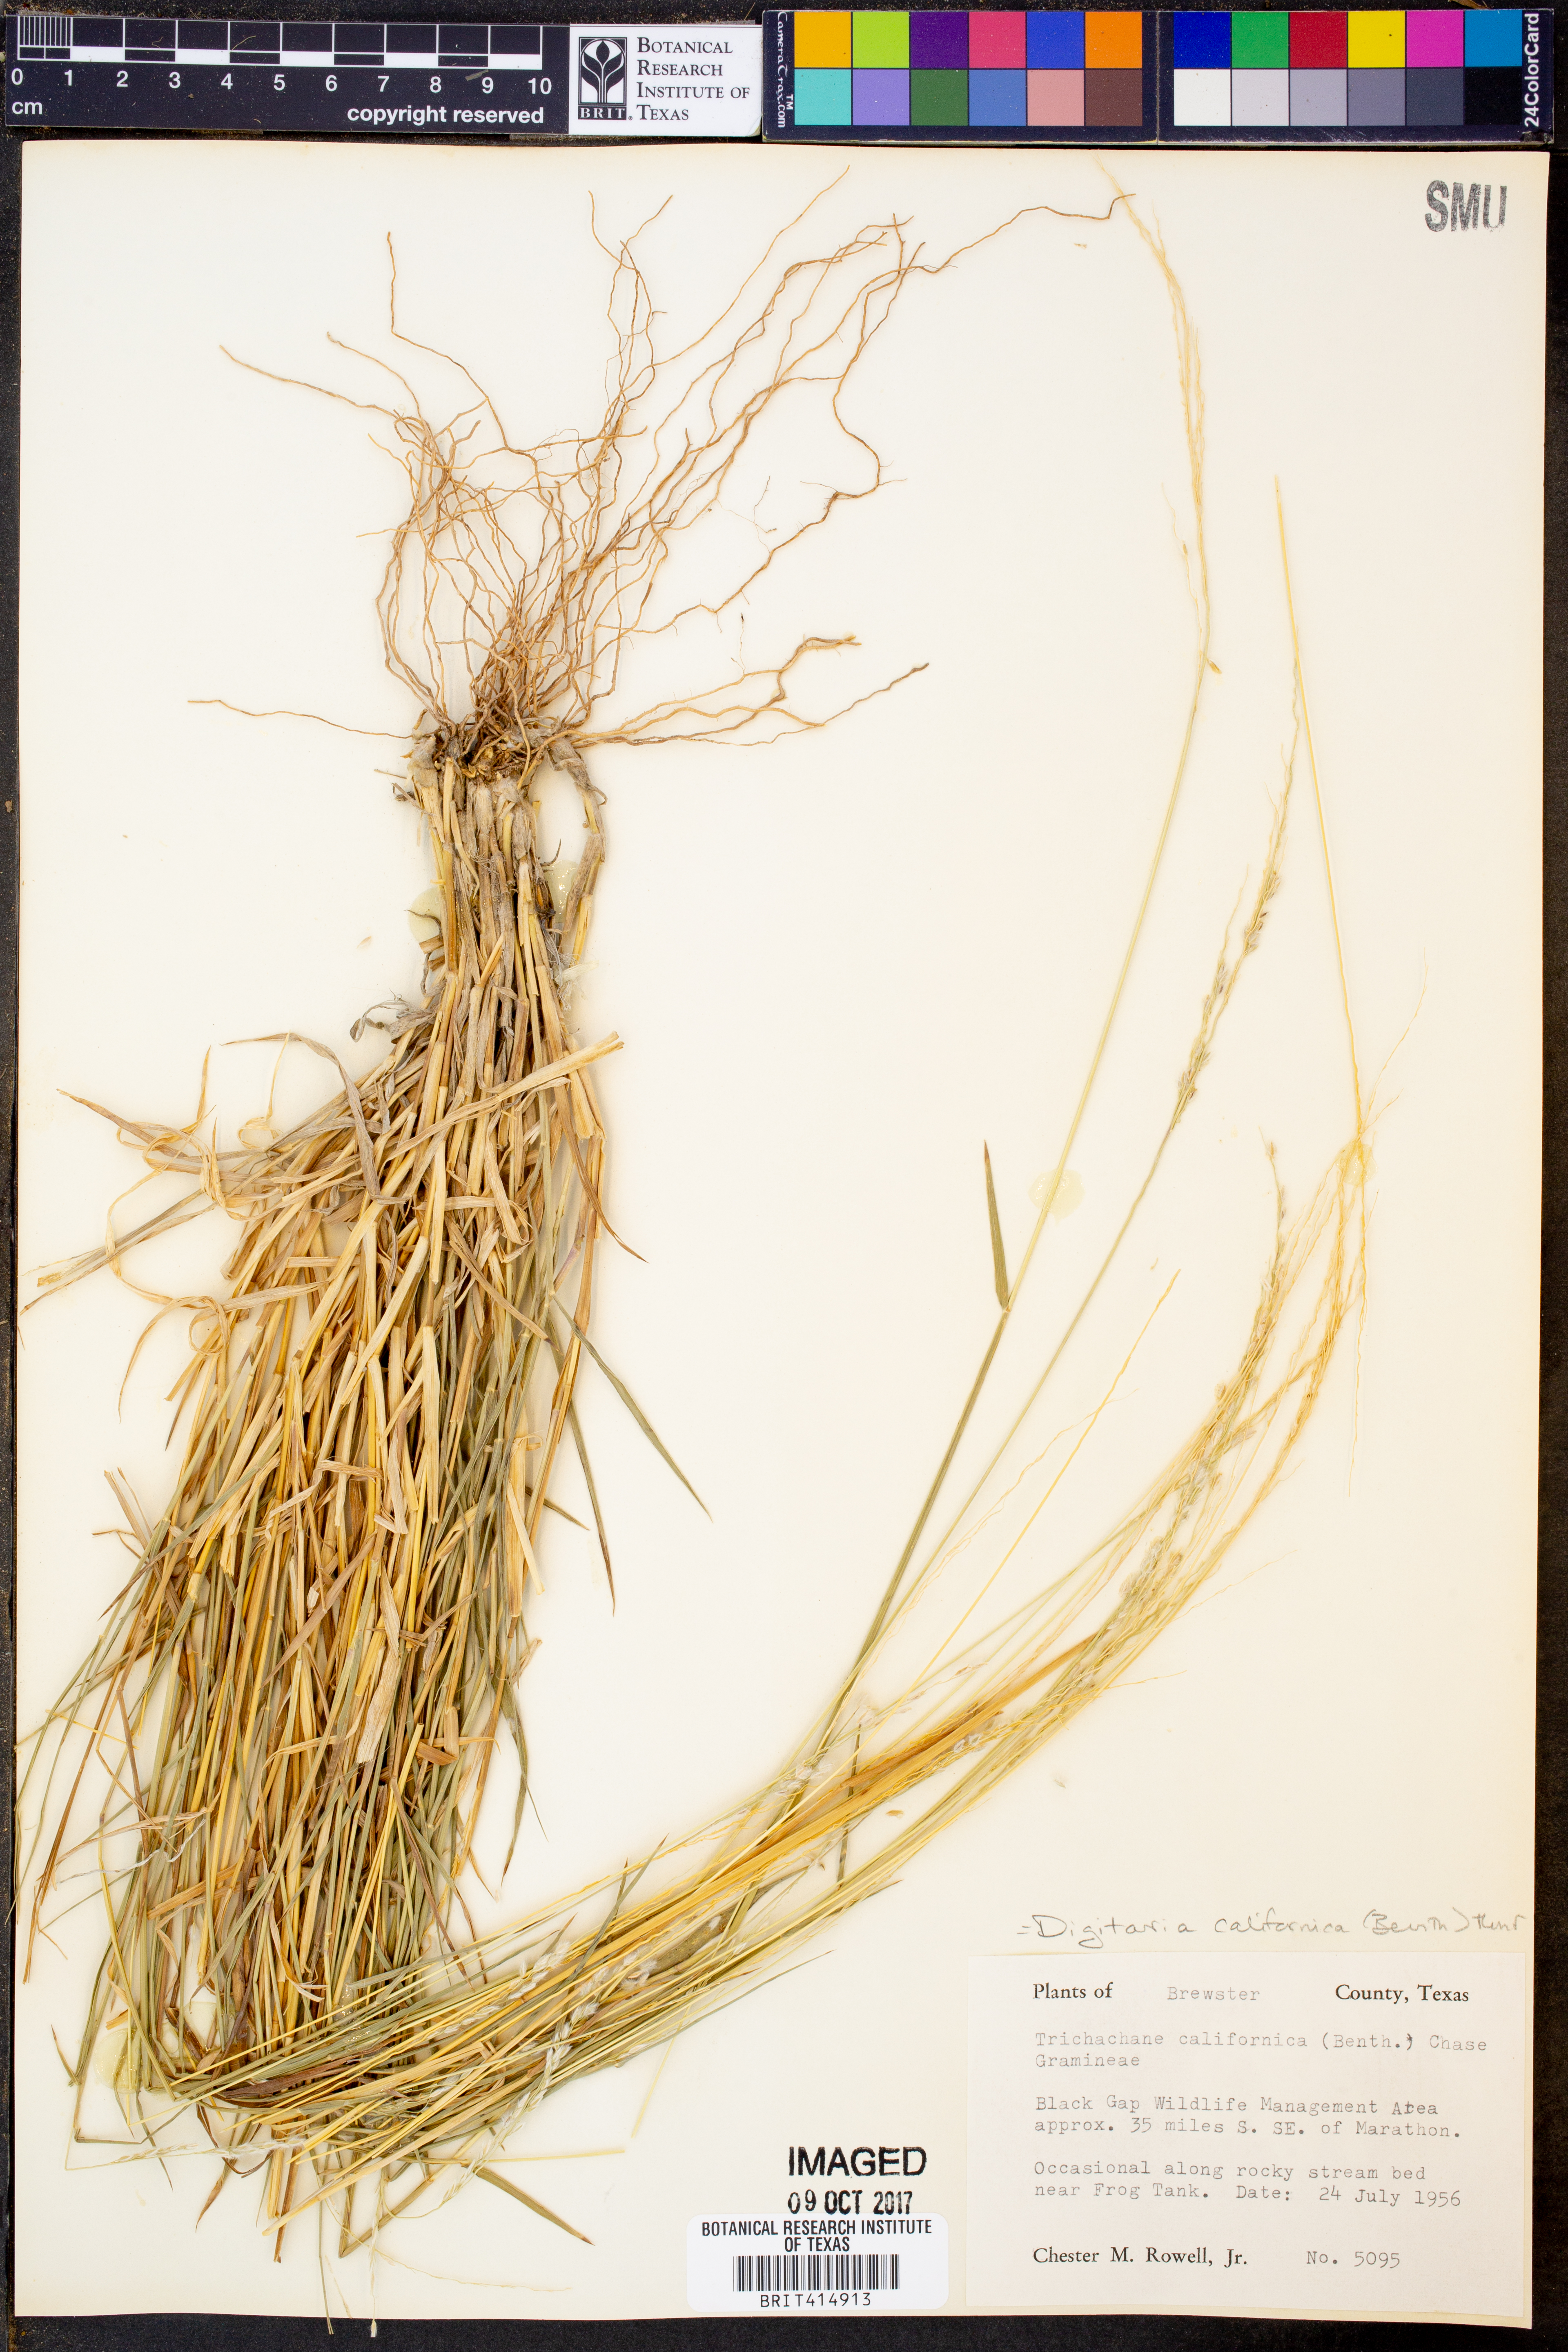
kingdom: Plantae
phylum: Tracheophyta
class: Liliopsida
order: Poales
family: Poaceae
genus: Digitaria
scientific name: Digitaria californica
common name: Arizona cottontop
